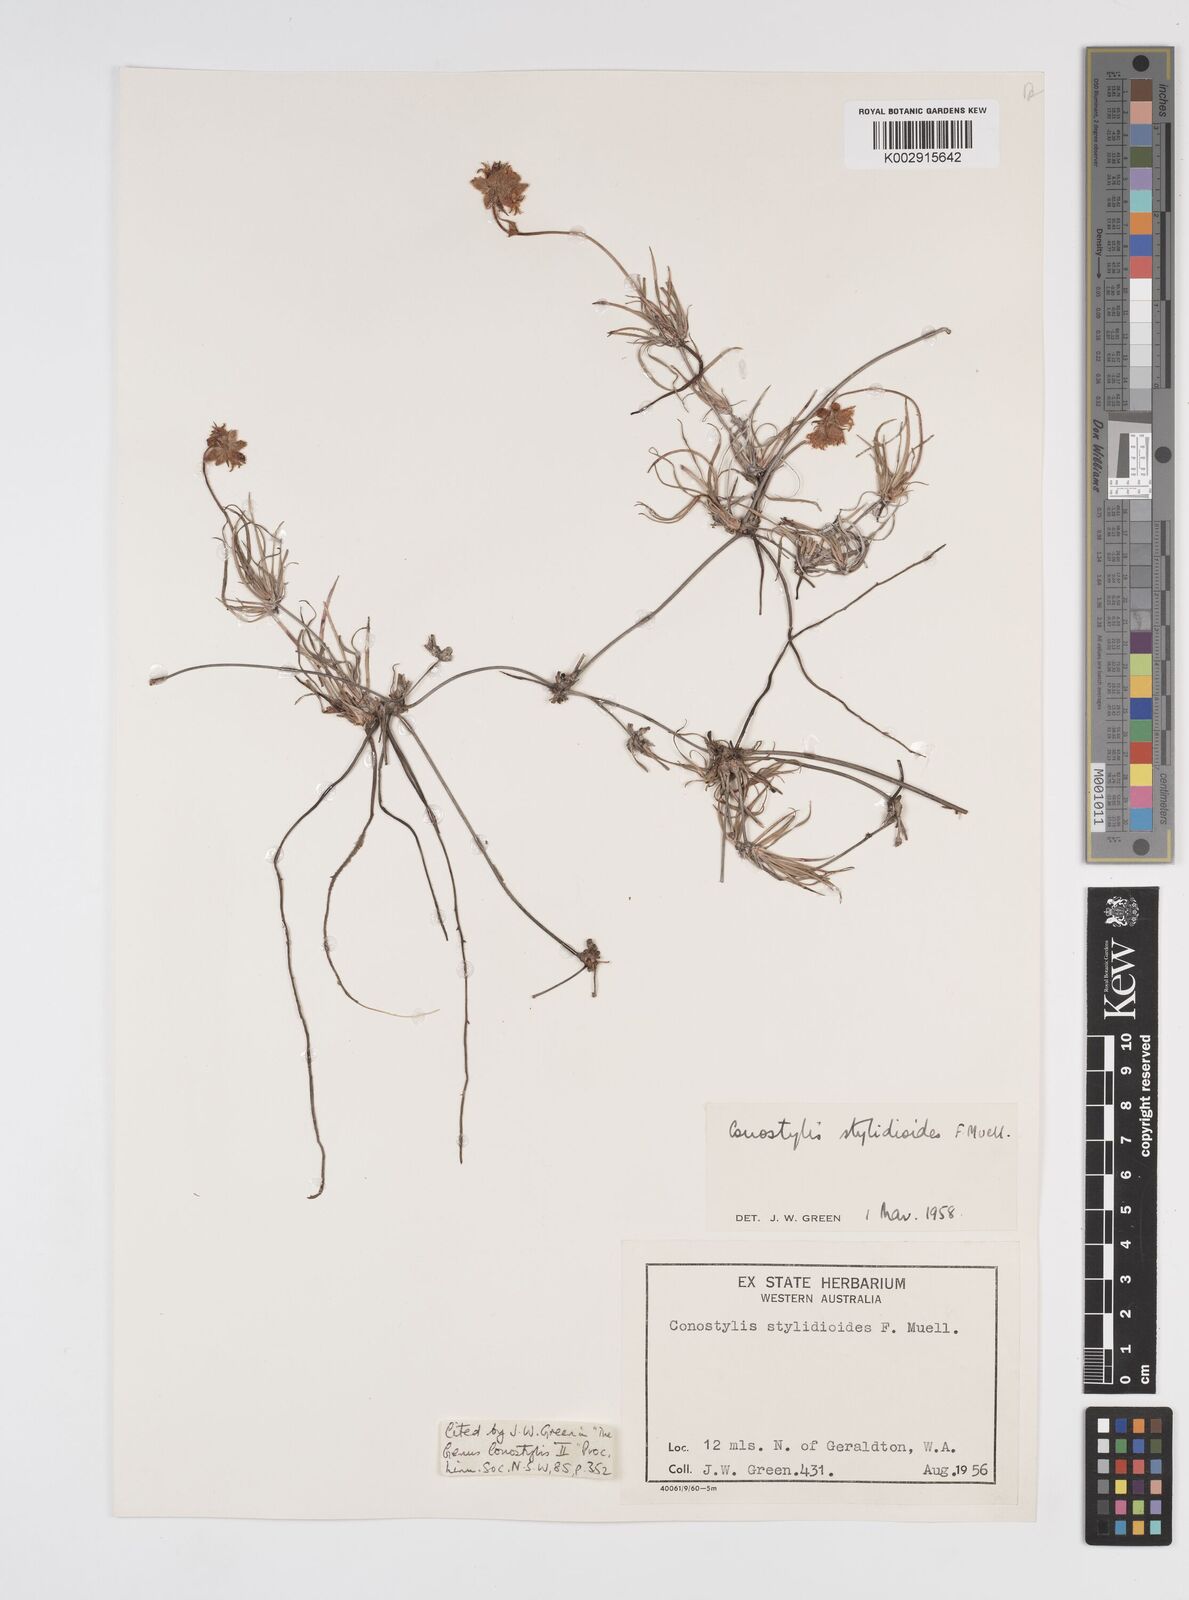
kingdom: Plantae
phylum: Tracheophyta
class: Liliopsida
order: Commelinales
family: Haemodoraceae
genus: Conostylis
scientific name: Conostylis stylidioides
